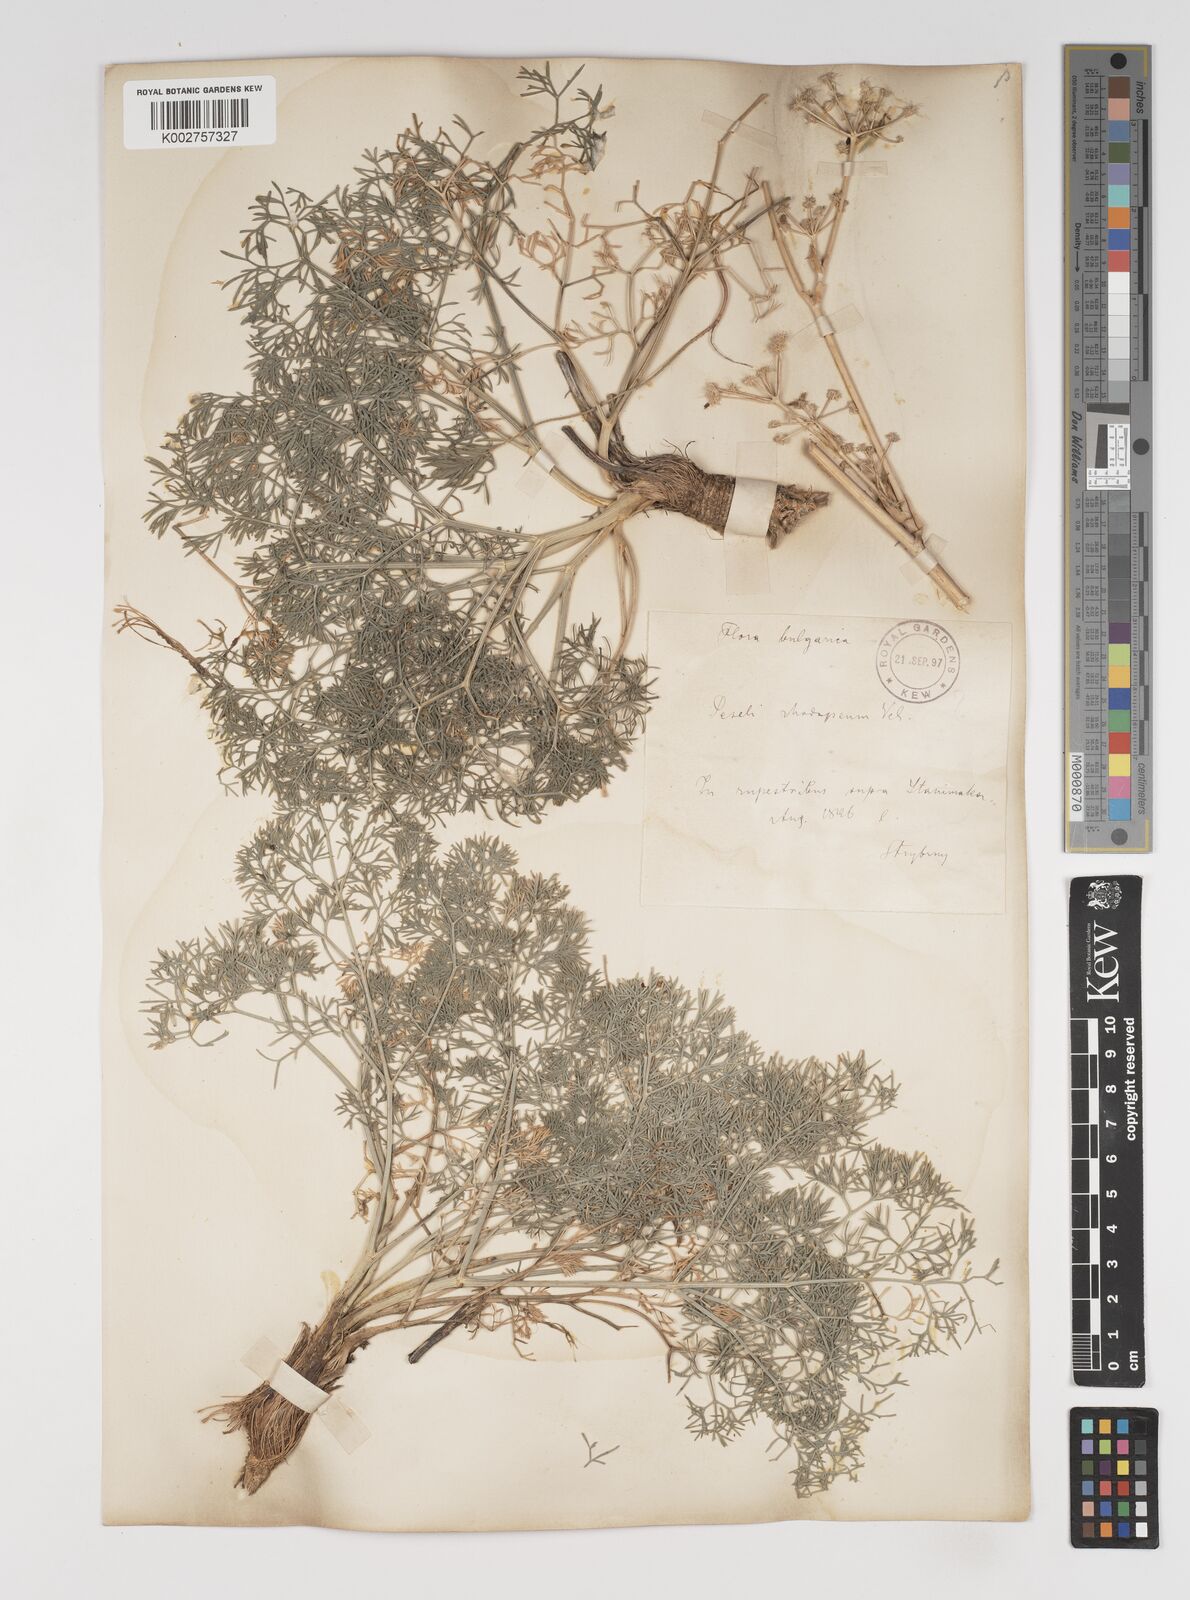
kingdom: Plantae
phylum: Tracheophyta
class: Magnoliopsida
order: Apiales
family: Apiaceae
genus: Seseli
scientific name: Seseli rhodopeum
